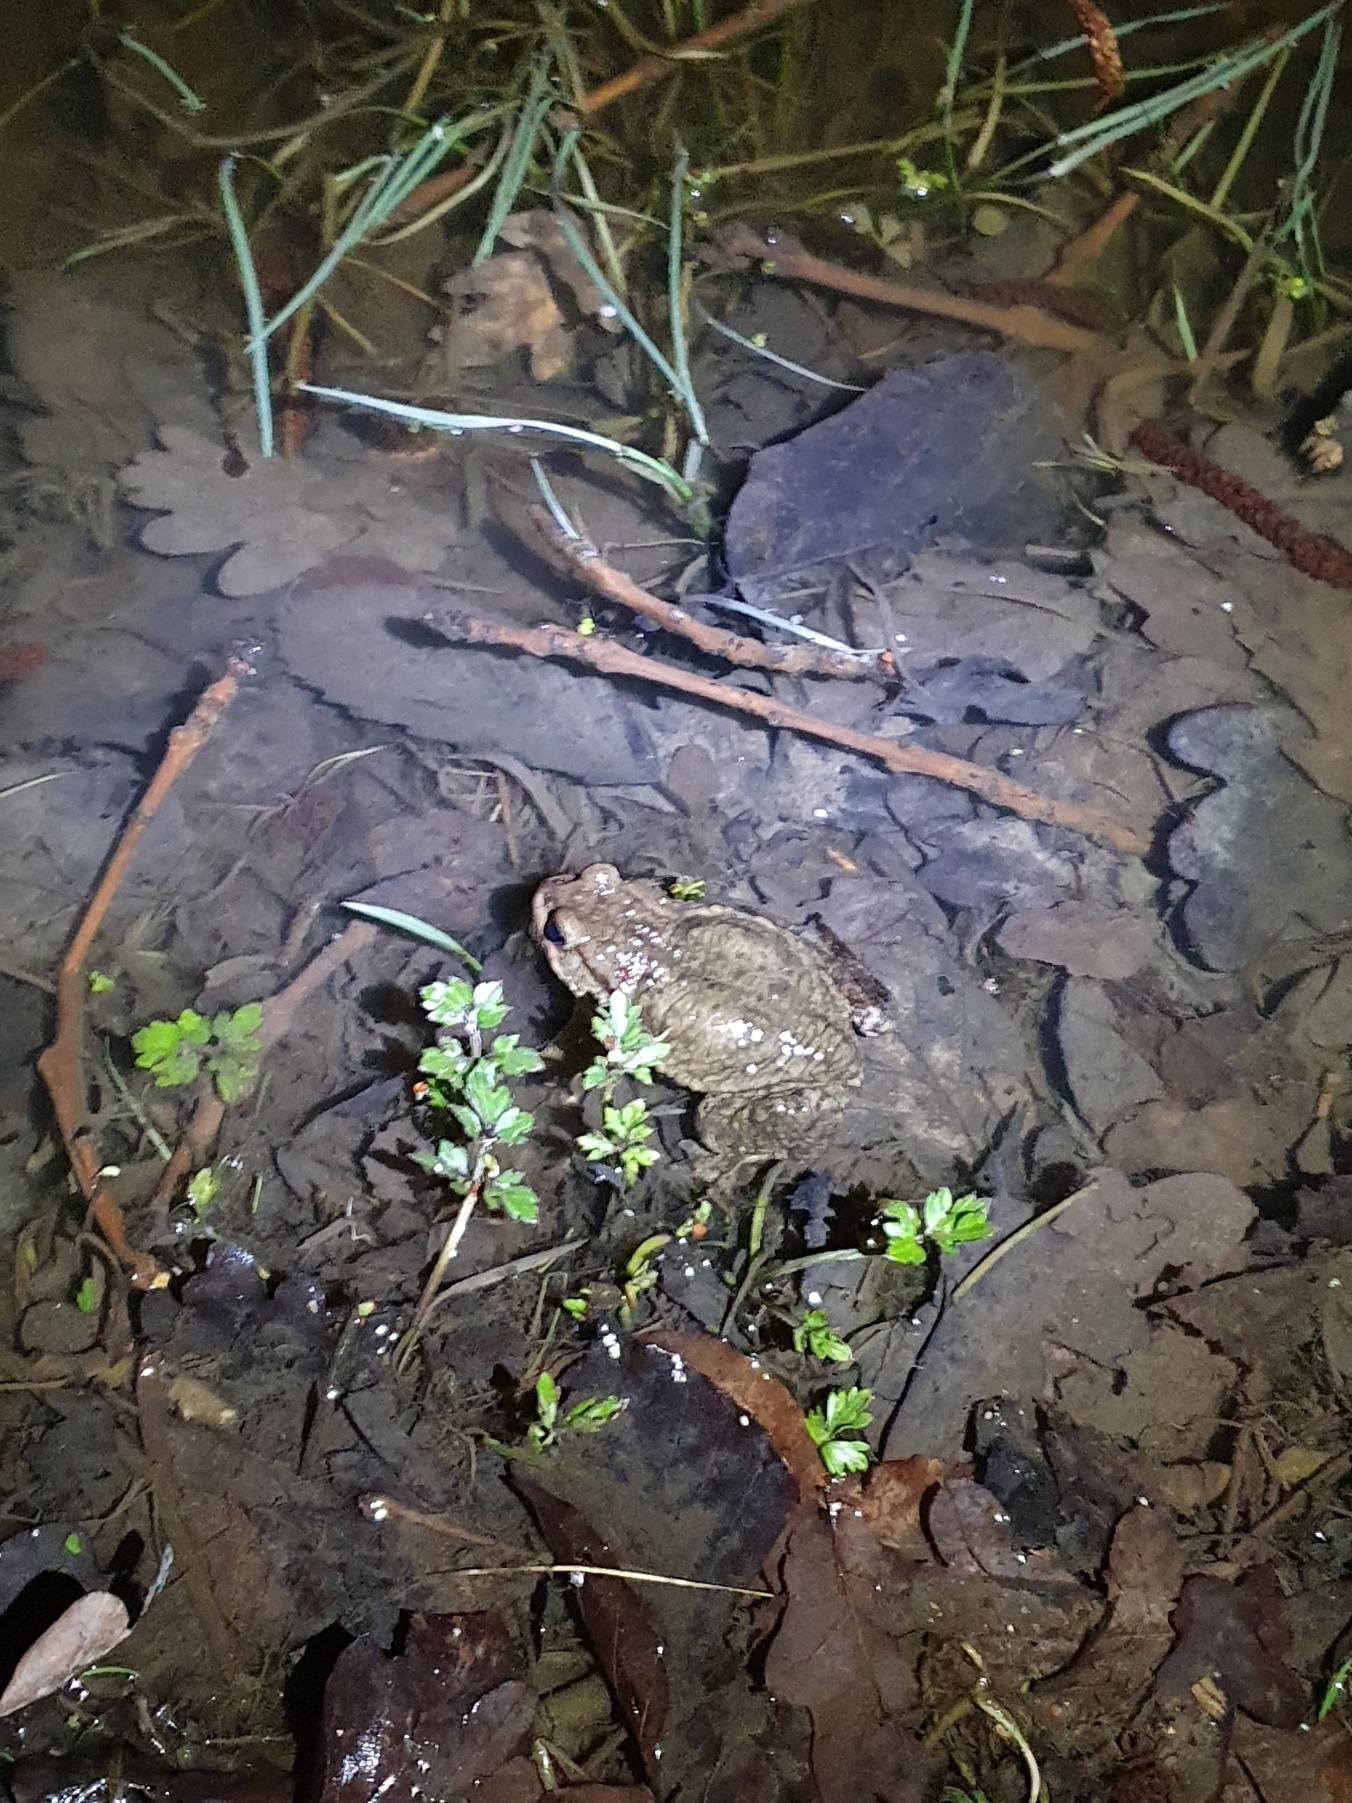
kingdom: Animalia
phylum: Chordata
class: Amphibia
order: Anura
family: Bufonidae
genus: Bufo
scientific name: Bufo bufo
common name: Skrubtudse
